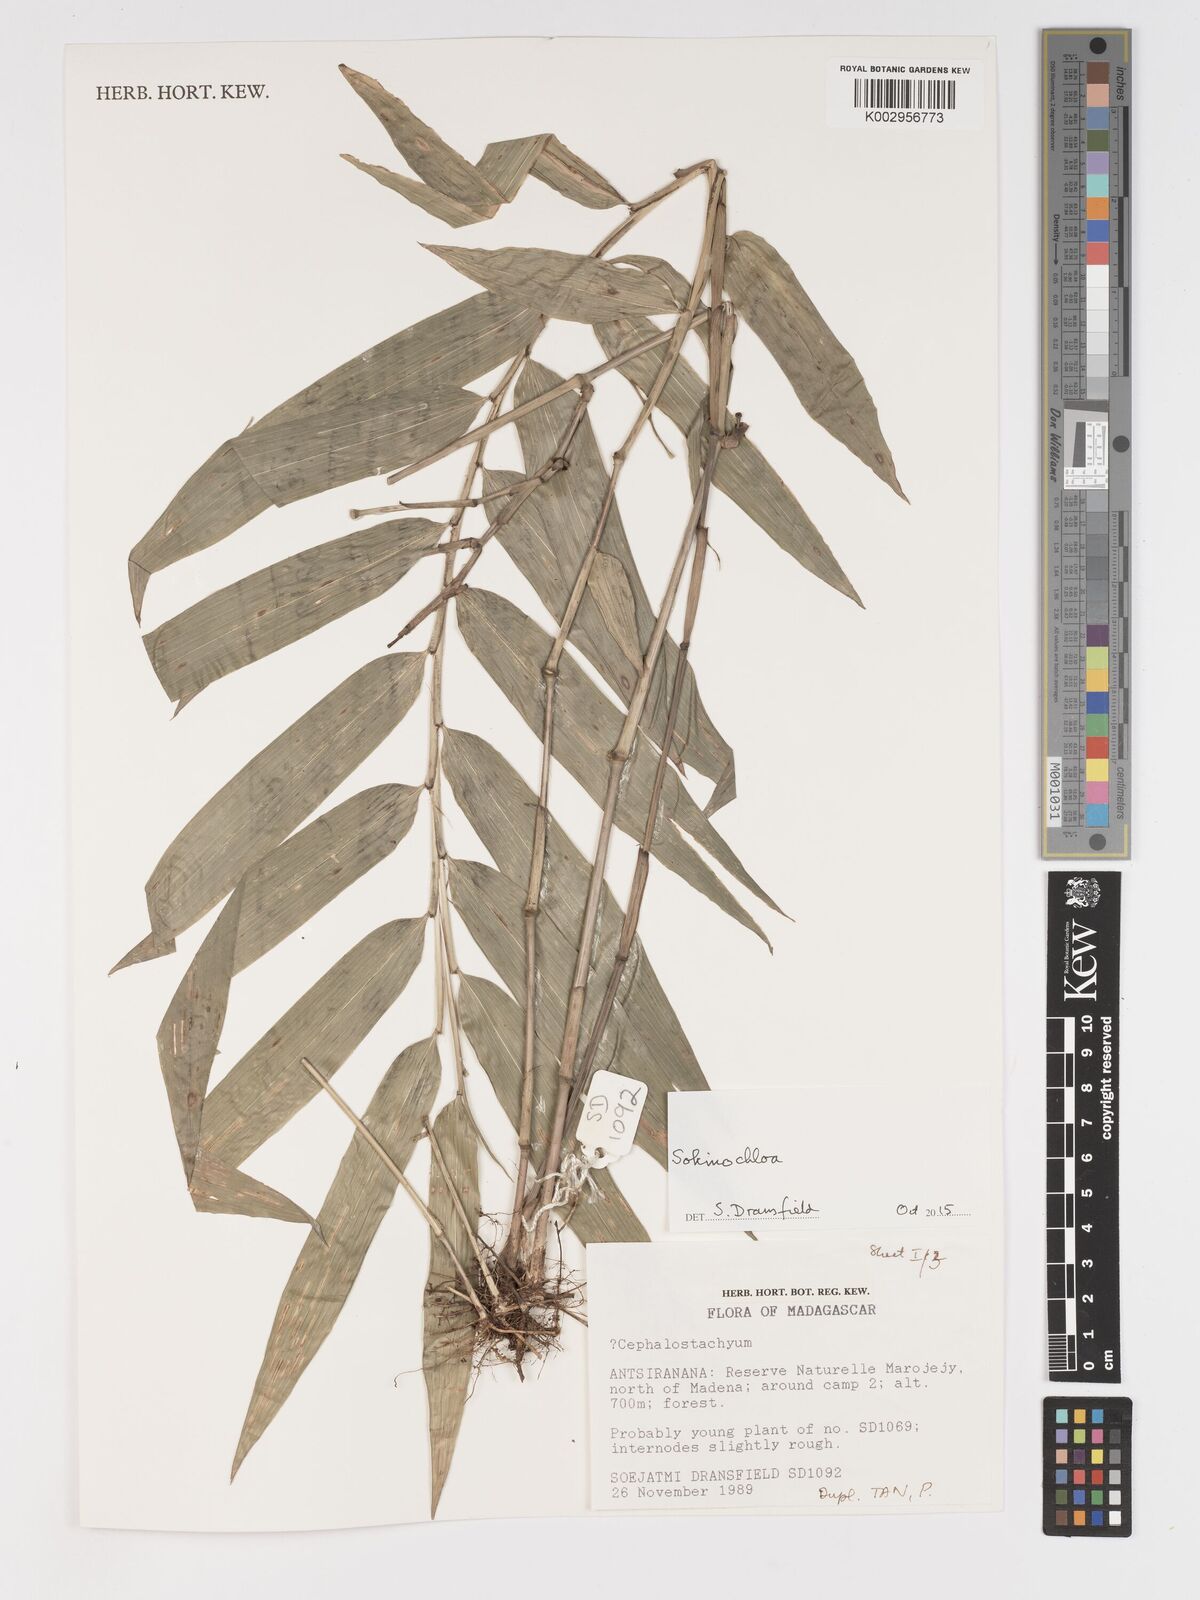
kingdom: Plantae
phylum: Tracheophyta
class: Liliopsida
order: Poales
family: Poaceae
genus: Sokinochloa
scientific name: Sokinochloa
